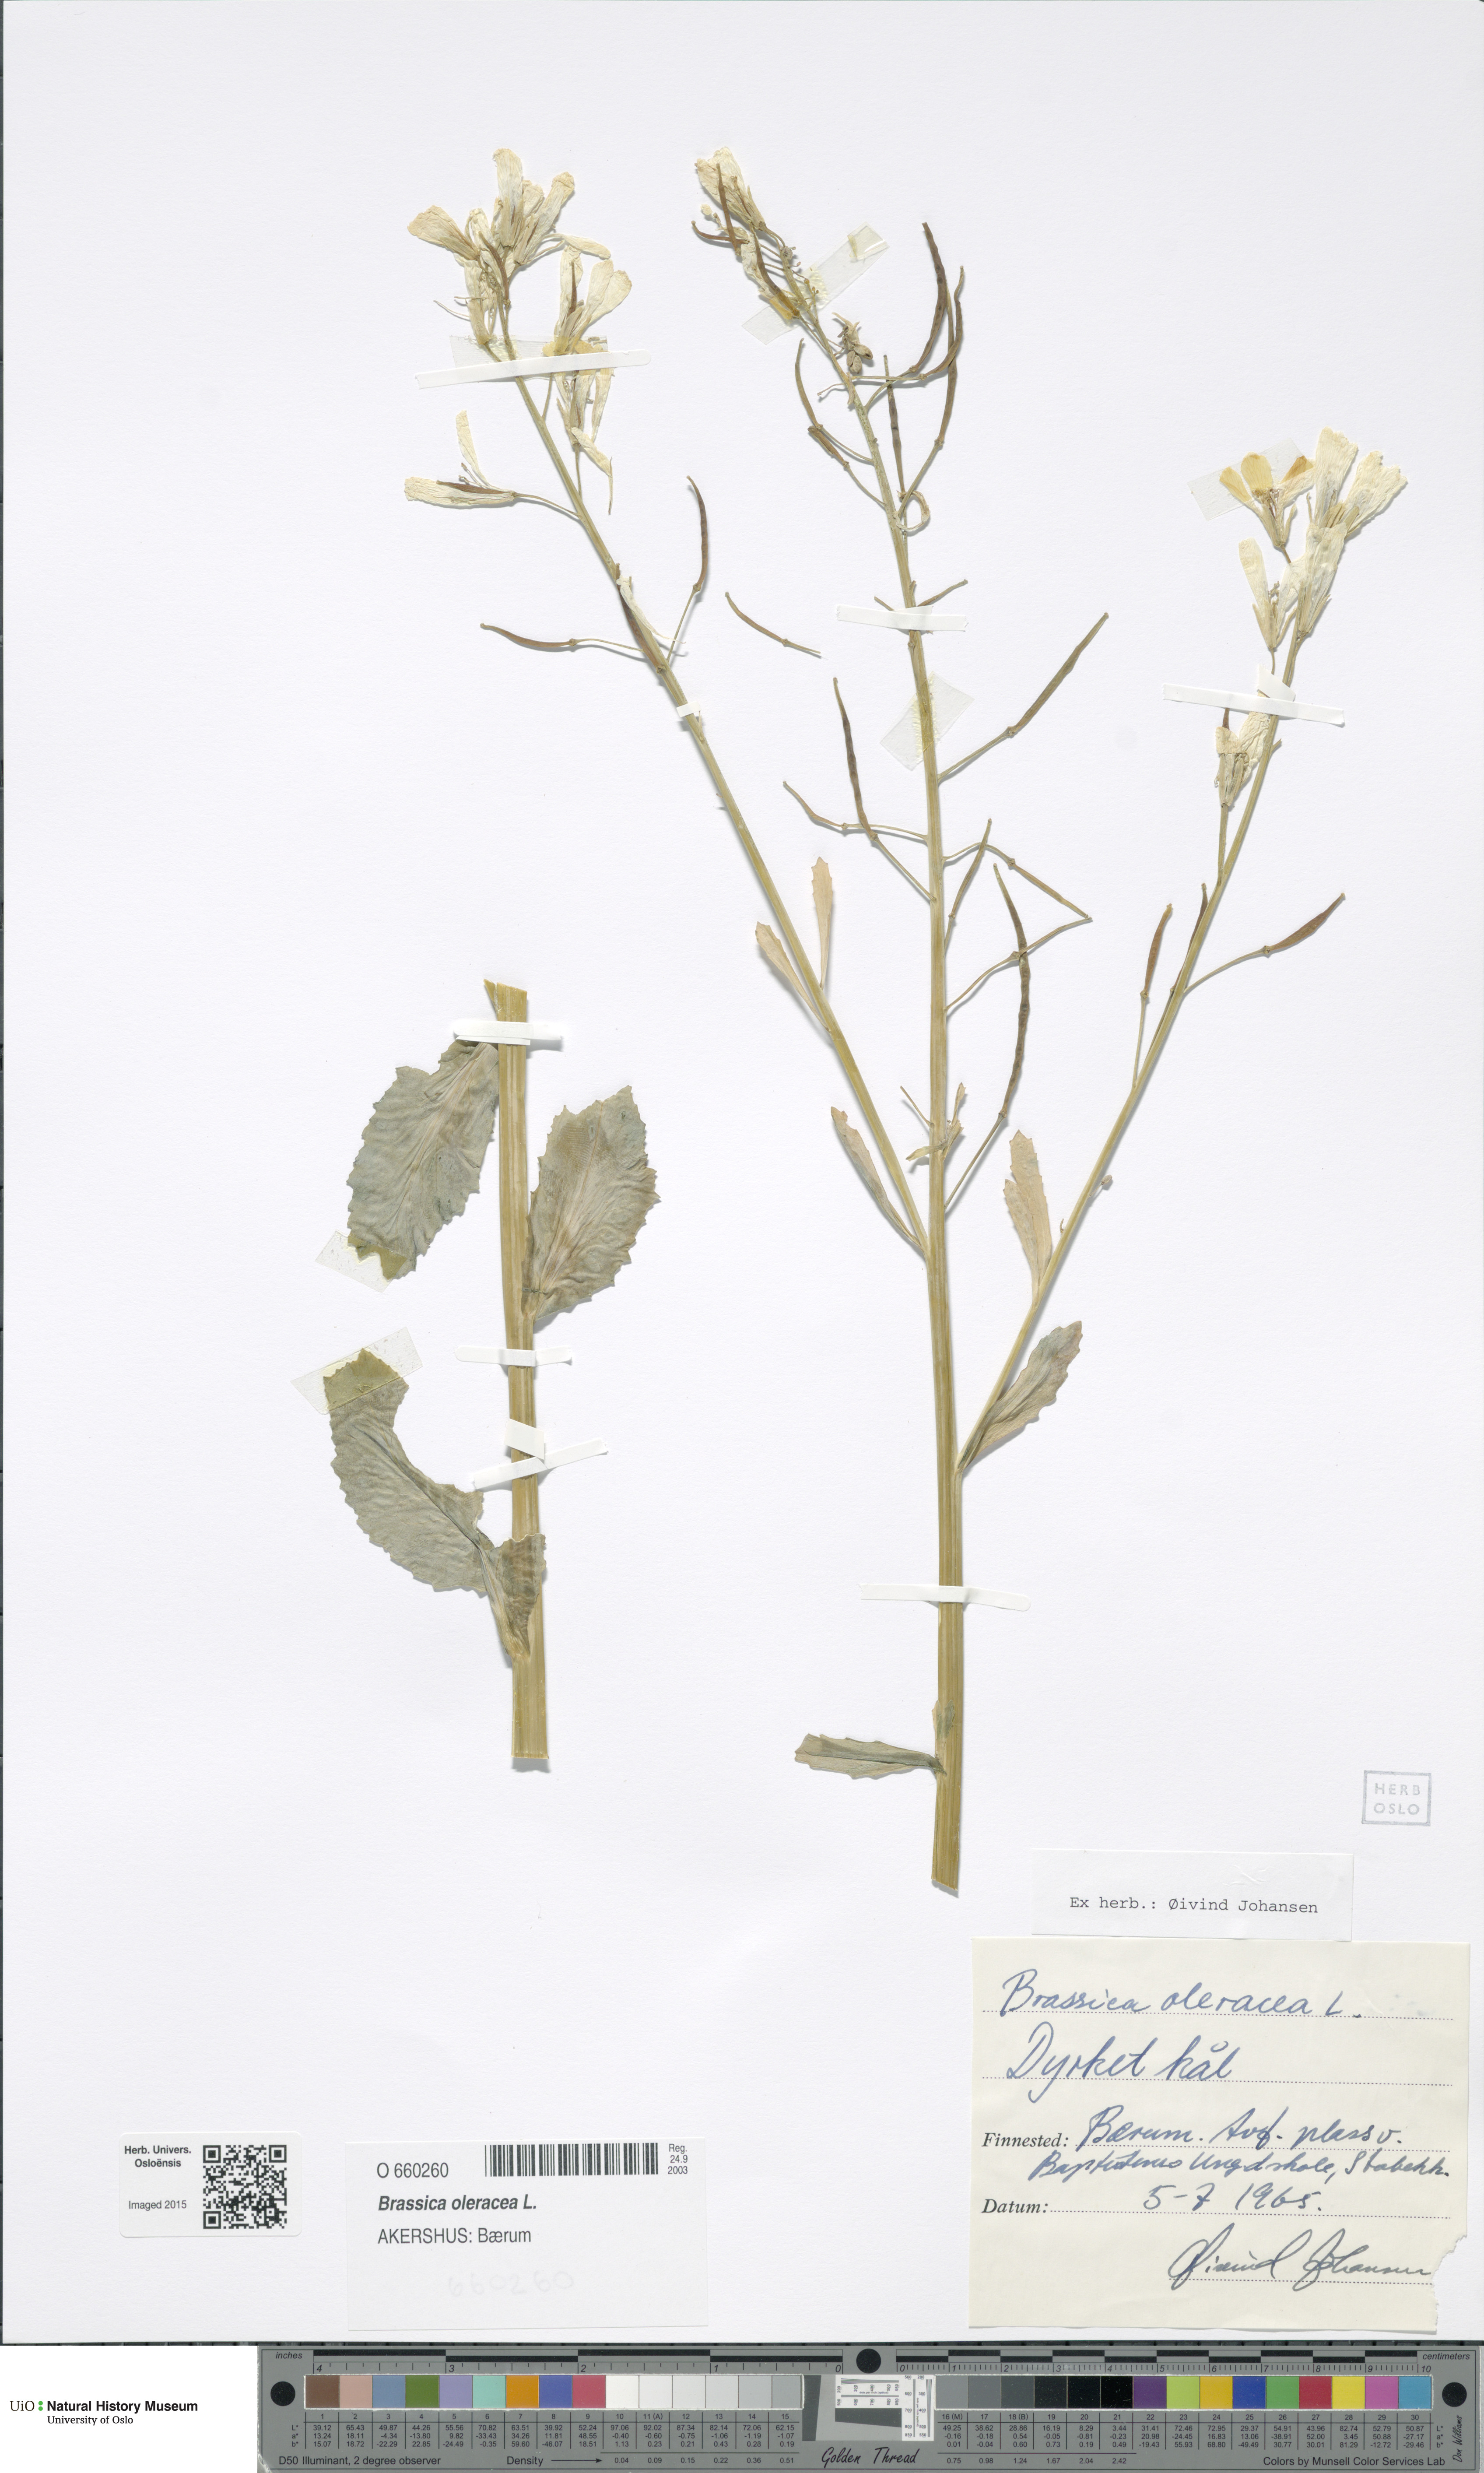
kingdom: Plantae
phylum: Tracheophyta
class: Magnoliopsida
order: Brassicales
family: Brassicaceae
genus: Brassica
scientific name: Brassica oleracea
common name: Cabbage
